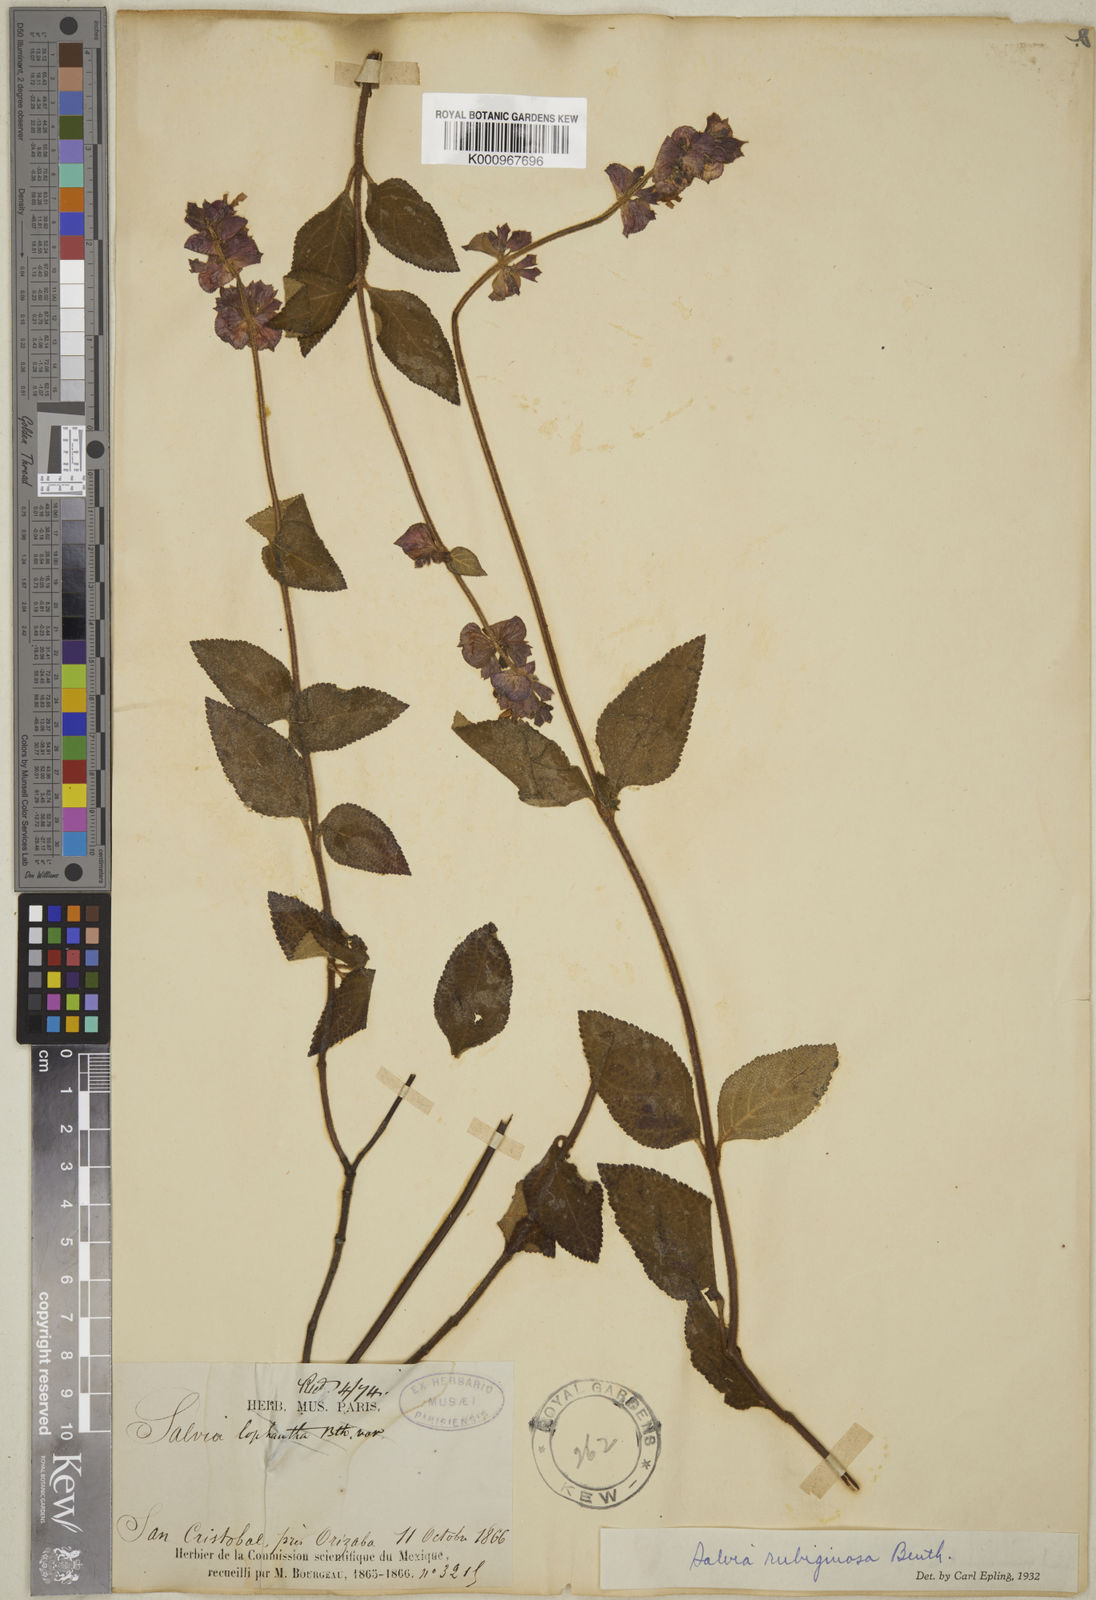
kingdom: Plantae
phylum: Tracheophyta
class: Magnoliopsida
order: Lamiales
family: Lamiaceae
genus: Salvia
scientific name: Salvia mocinoi
